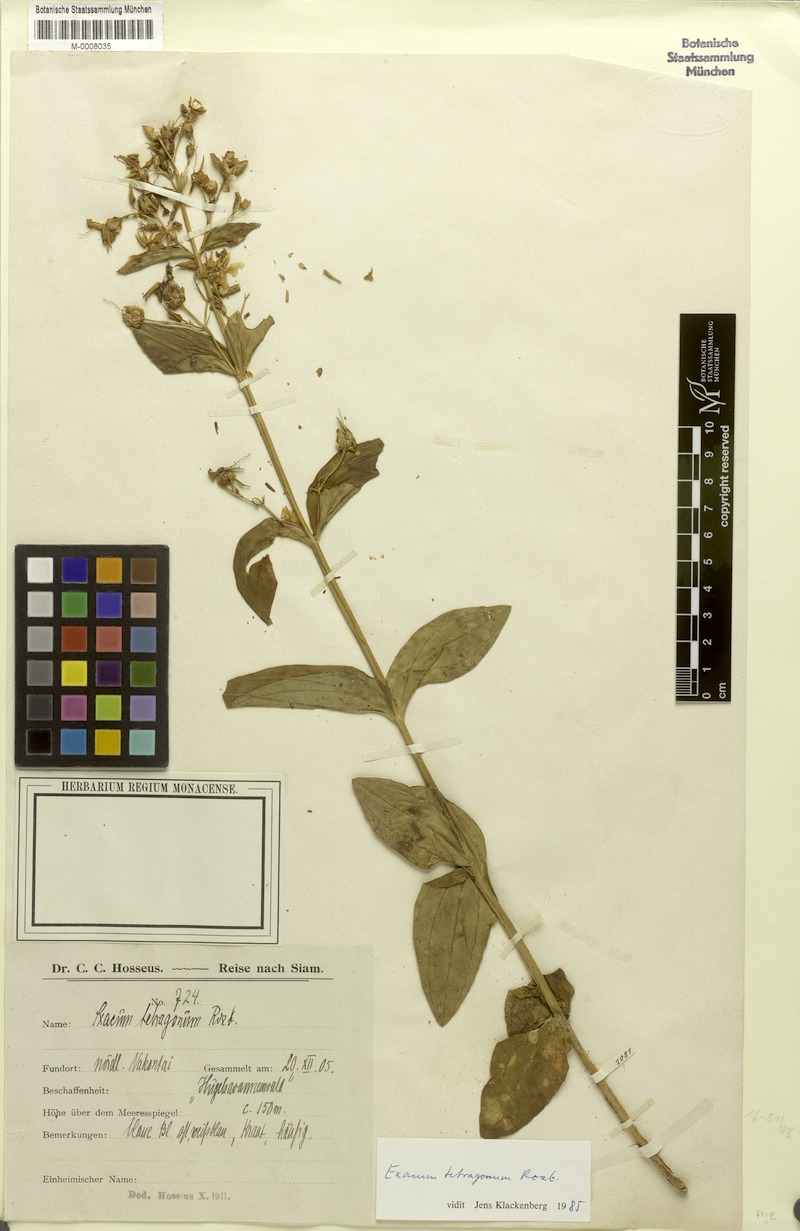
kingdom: Plantae
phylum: Tracheophyta
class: Magnoliopsida
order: Gentianales
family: Gentianaceae
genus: Exacum
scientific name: Exacum tetragonum
